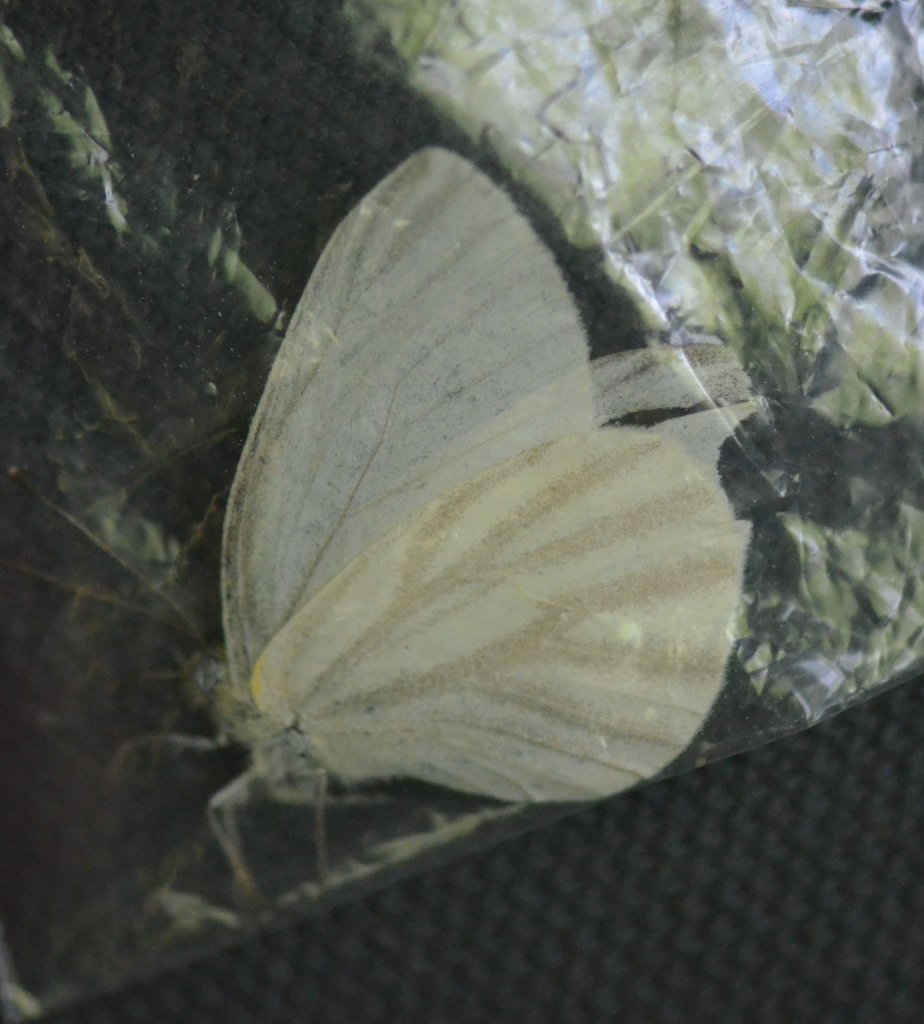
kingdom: Animalia
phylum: Arthropoda
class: Insecta
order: Lepidoptera
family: Pieridae
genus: Pieris
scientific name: Pieris virginiensis
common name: West Virginia White
